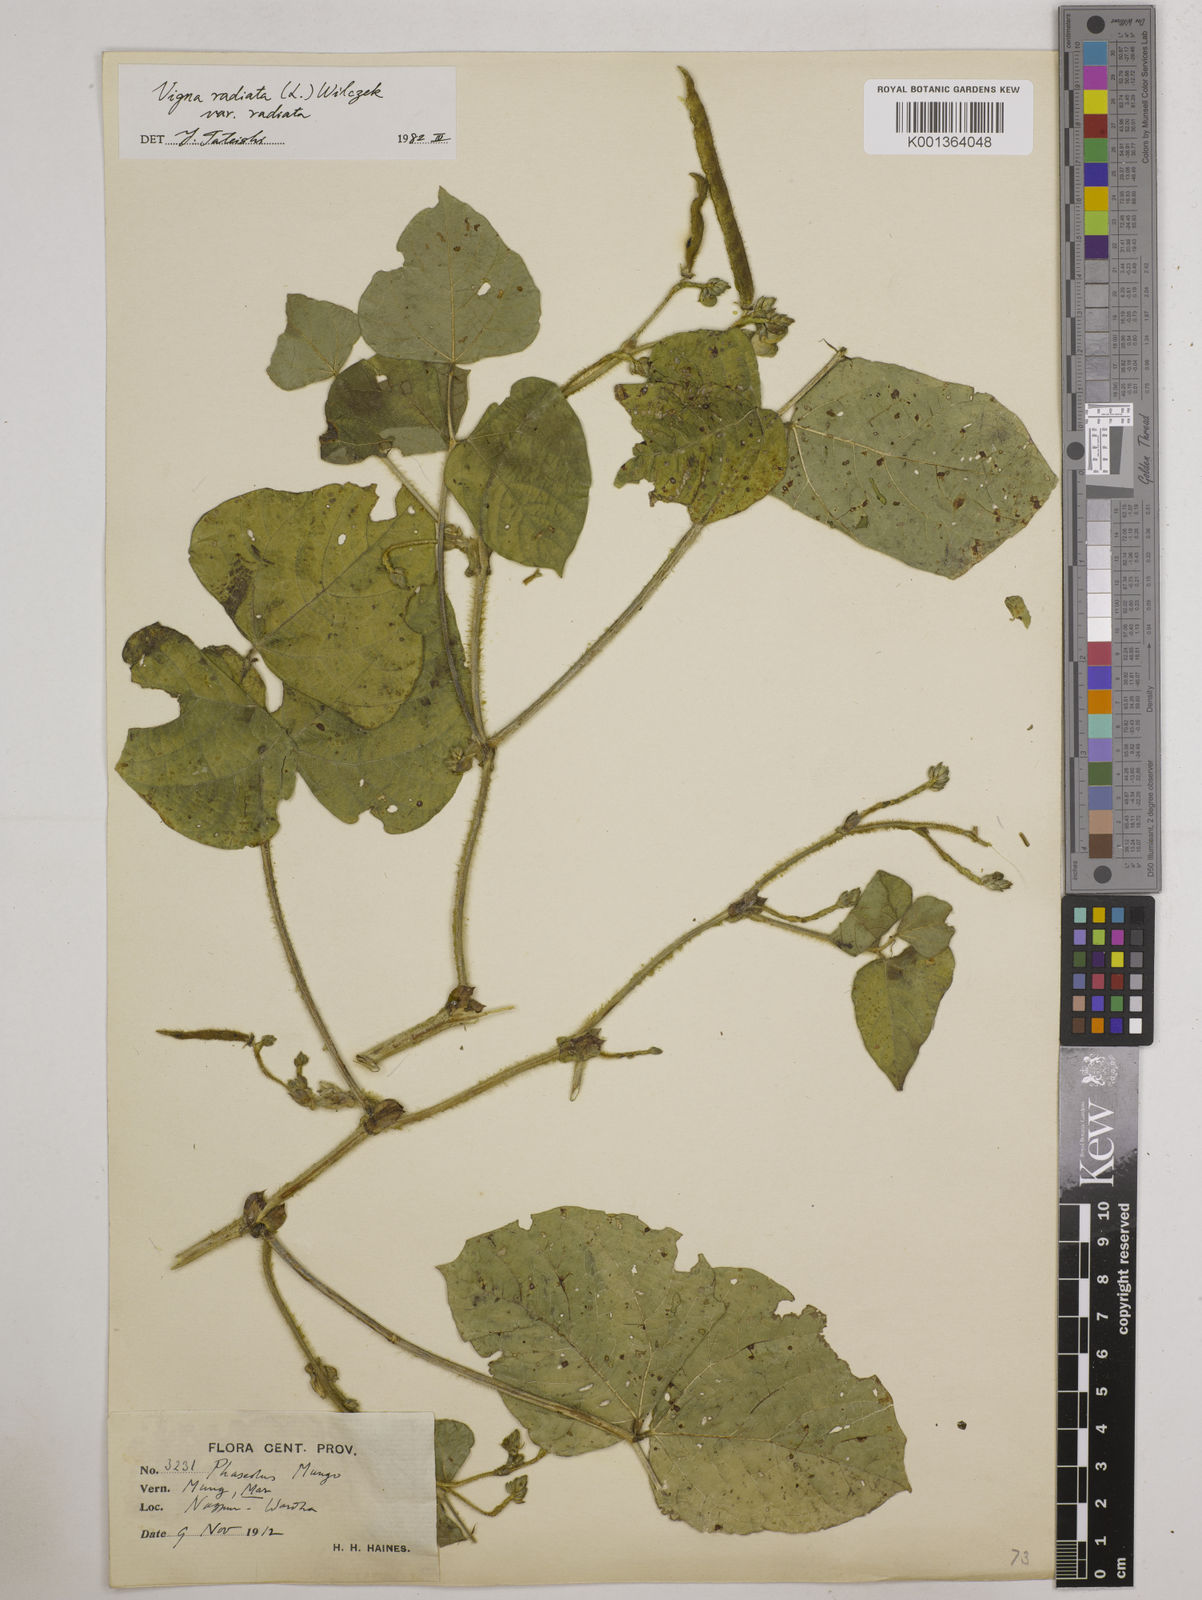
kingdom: Plantae
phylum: Tracheophyta
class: Magnoliopsida
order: Fabales
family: Fabaceae
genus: Vigna
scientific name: Vigna radiata
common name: Mung-bean
